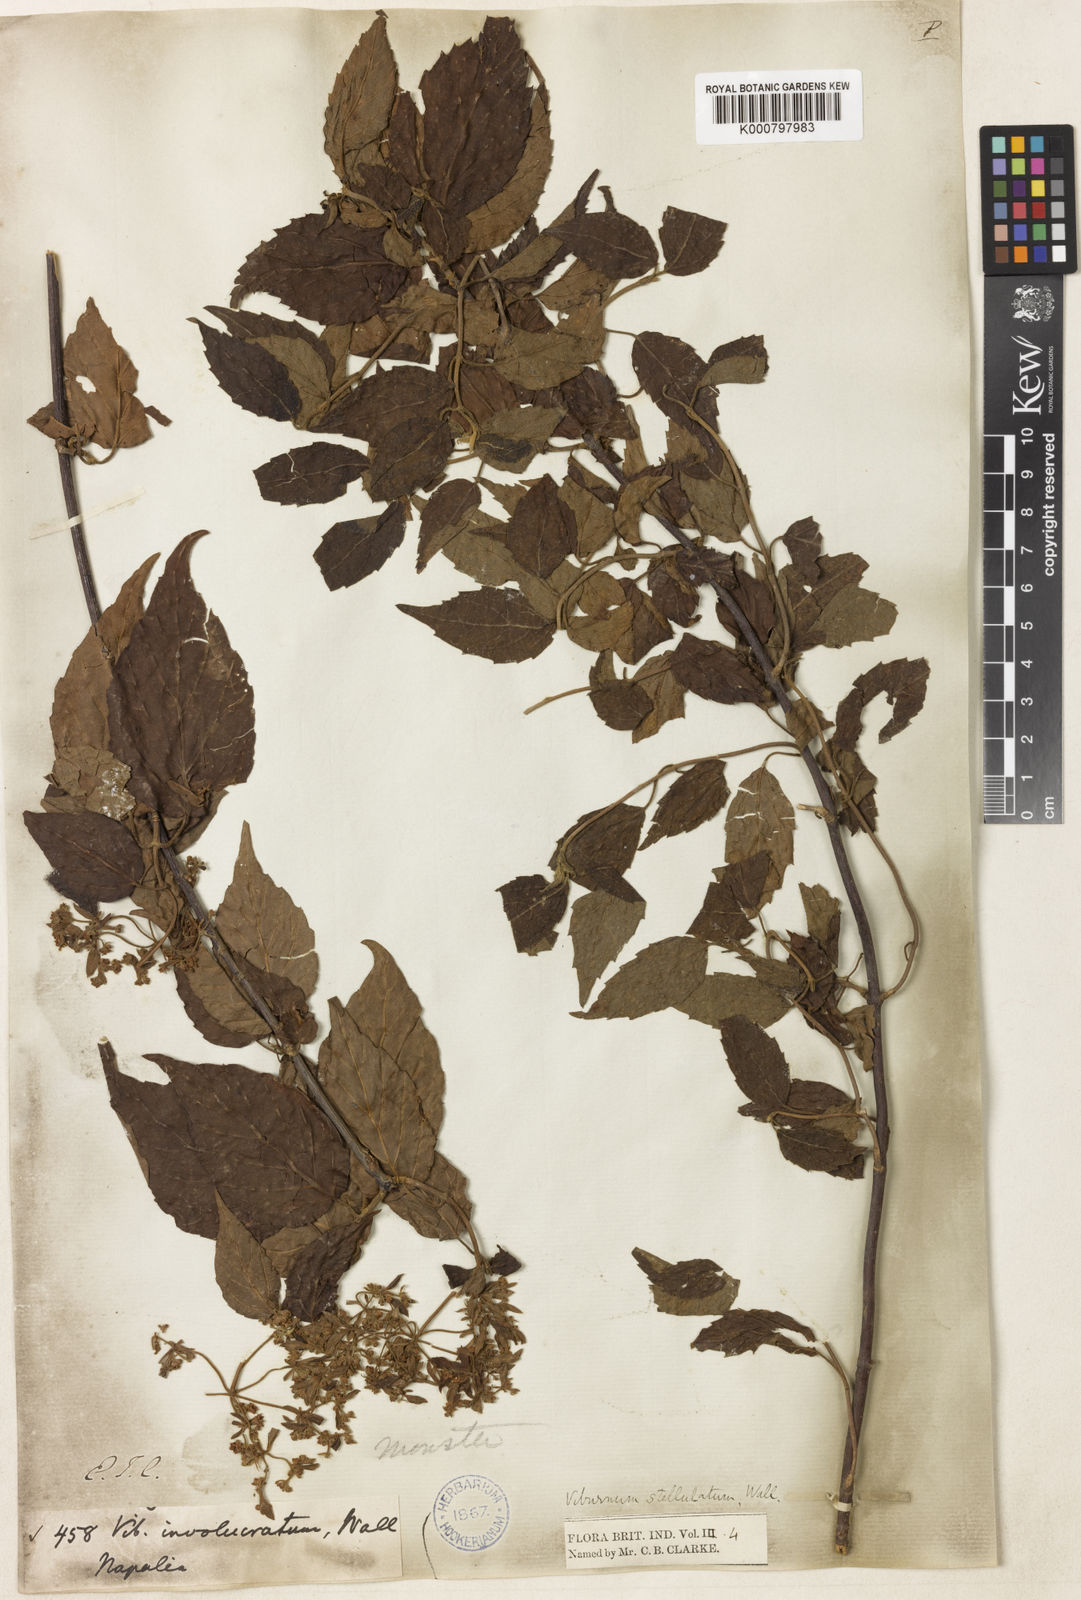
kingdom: Plantae
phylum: Tracheophyta
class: Magnoliopsida
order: Dipsacales
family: Viburnaceae
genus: Viburnum
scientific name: Viburnum mullaha
